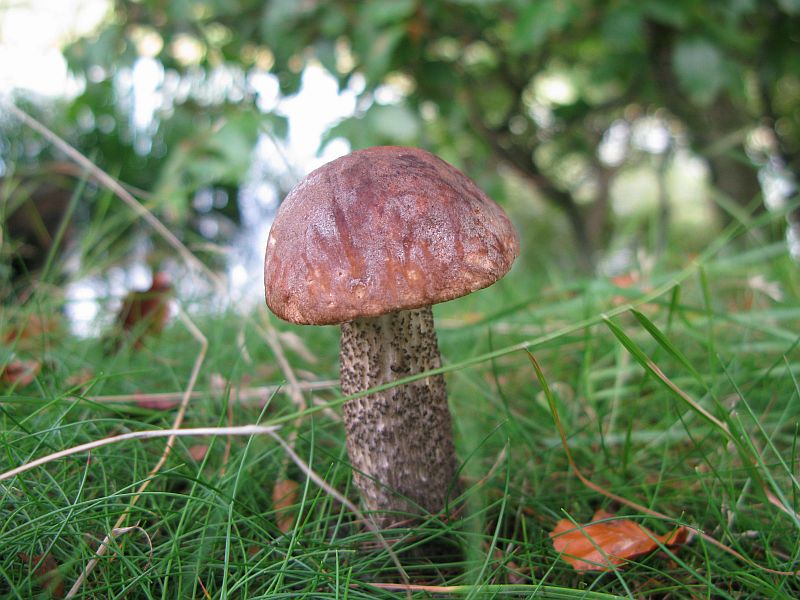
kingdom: Fungi
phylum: Basidiomycota
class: Agaricomycetes
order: Boletales
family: Boletaceae
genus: Leccinum
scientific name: Leccinum scabrum
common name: brun skælrørhat
